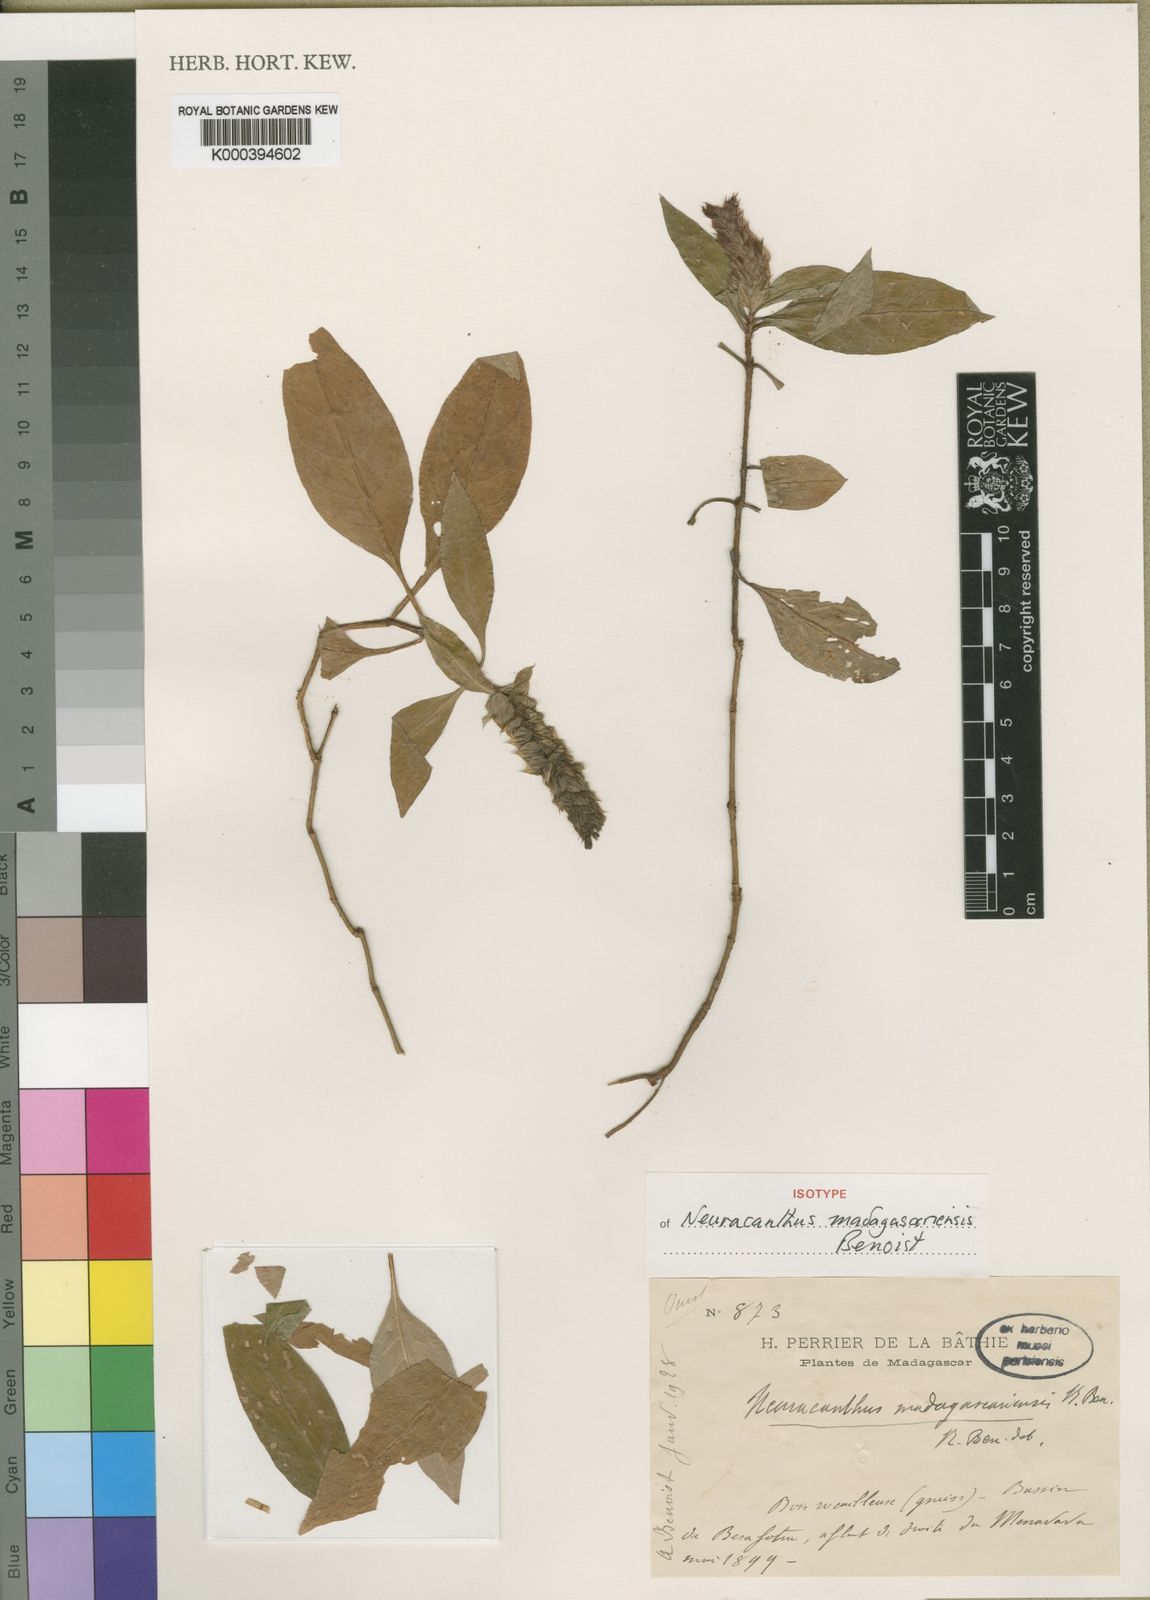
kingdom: Plantae
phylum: Tracheophyta
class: Magnoliopsida
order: Lamiales
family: Acanthaceae
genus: Neuracanthus
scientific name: Neuracanthus madagascariensis
